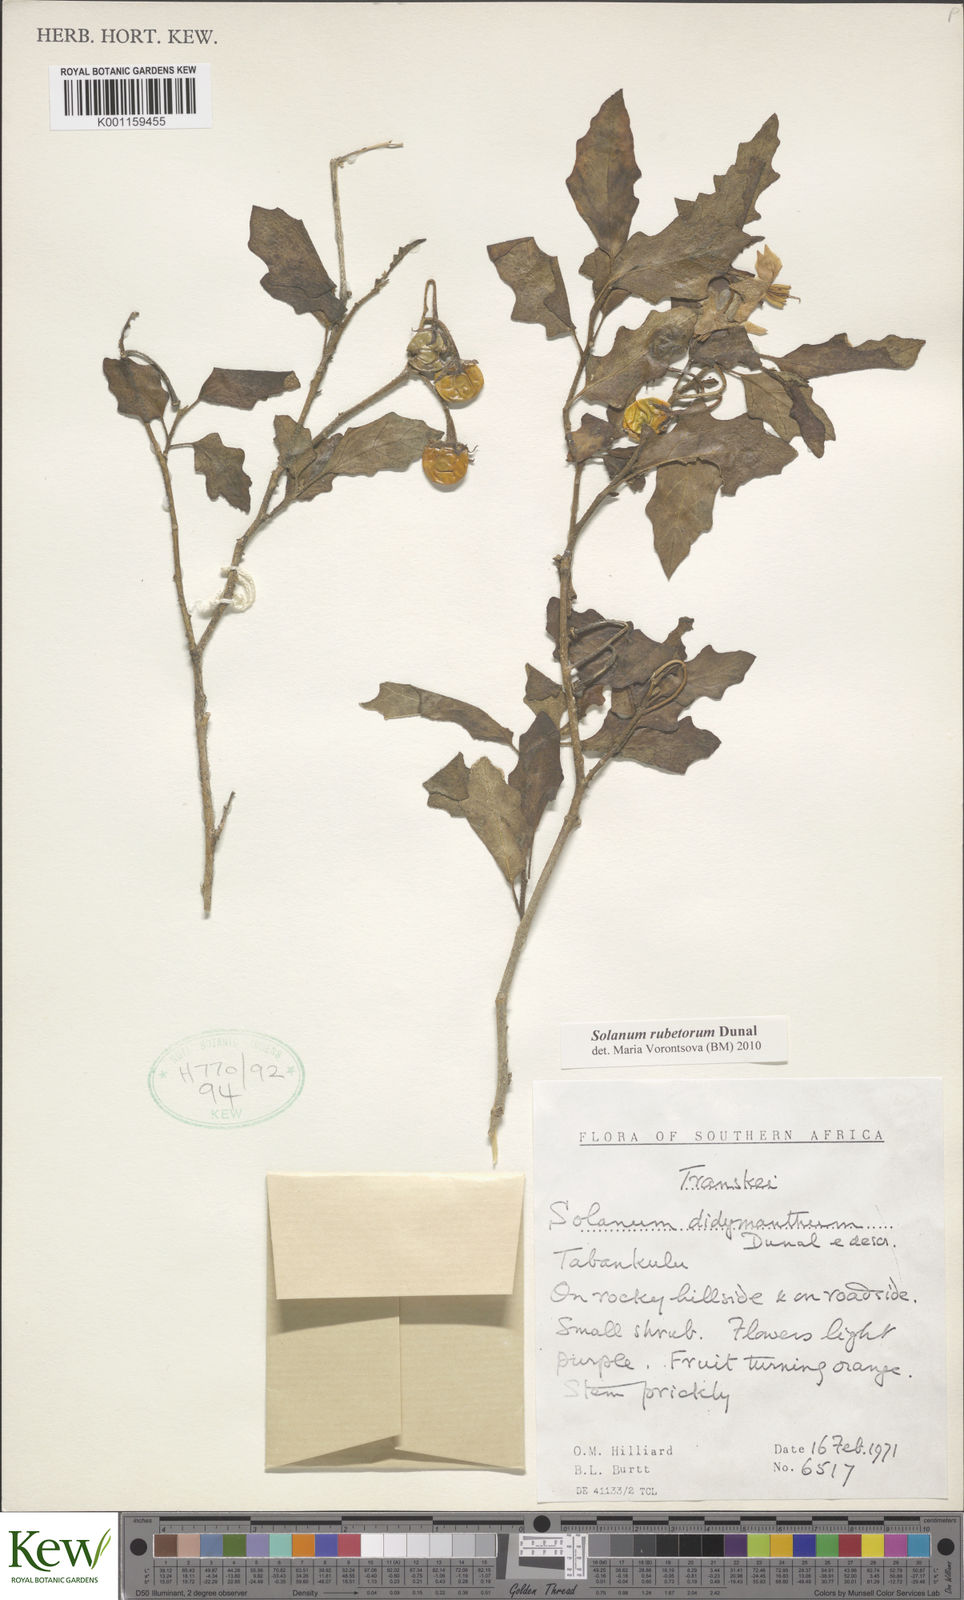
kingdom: Plantae
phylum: Tracheophyta
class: Magnoliopsida
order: Solanales
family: Solanaceae
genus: Solanum
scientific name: Solanum rubetorum
